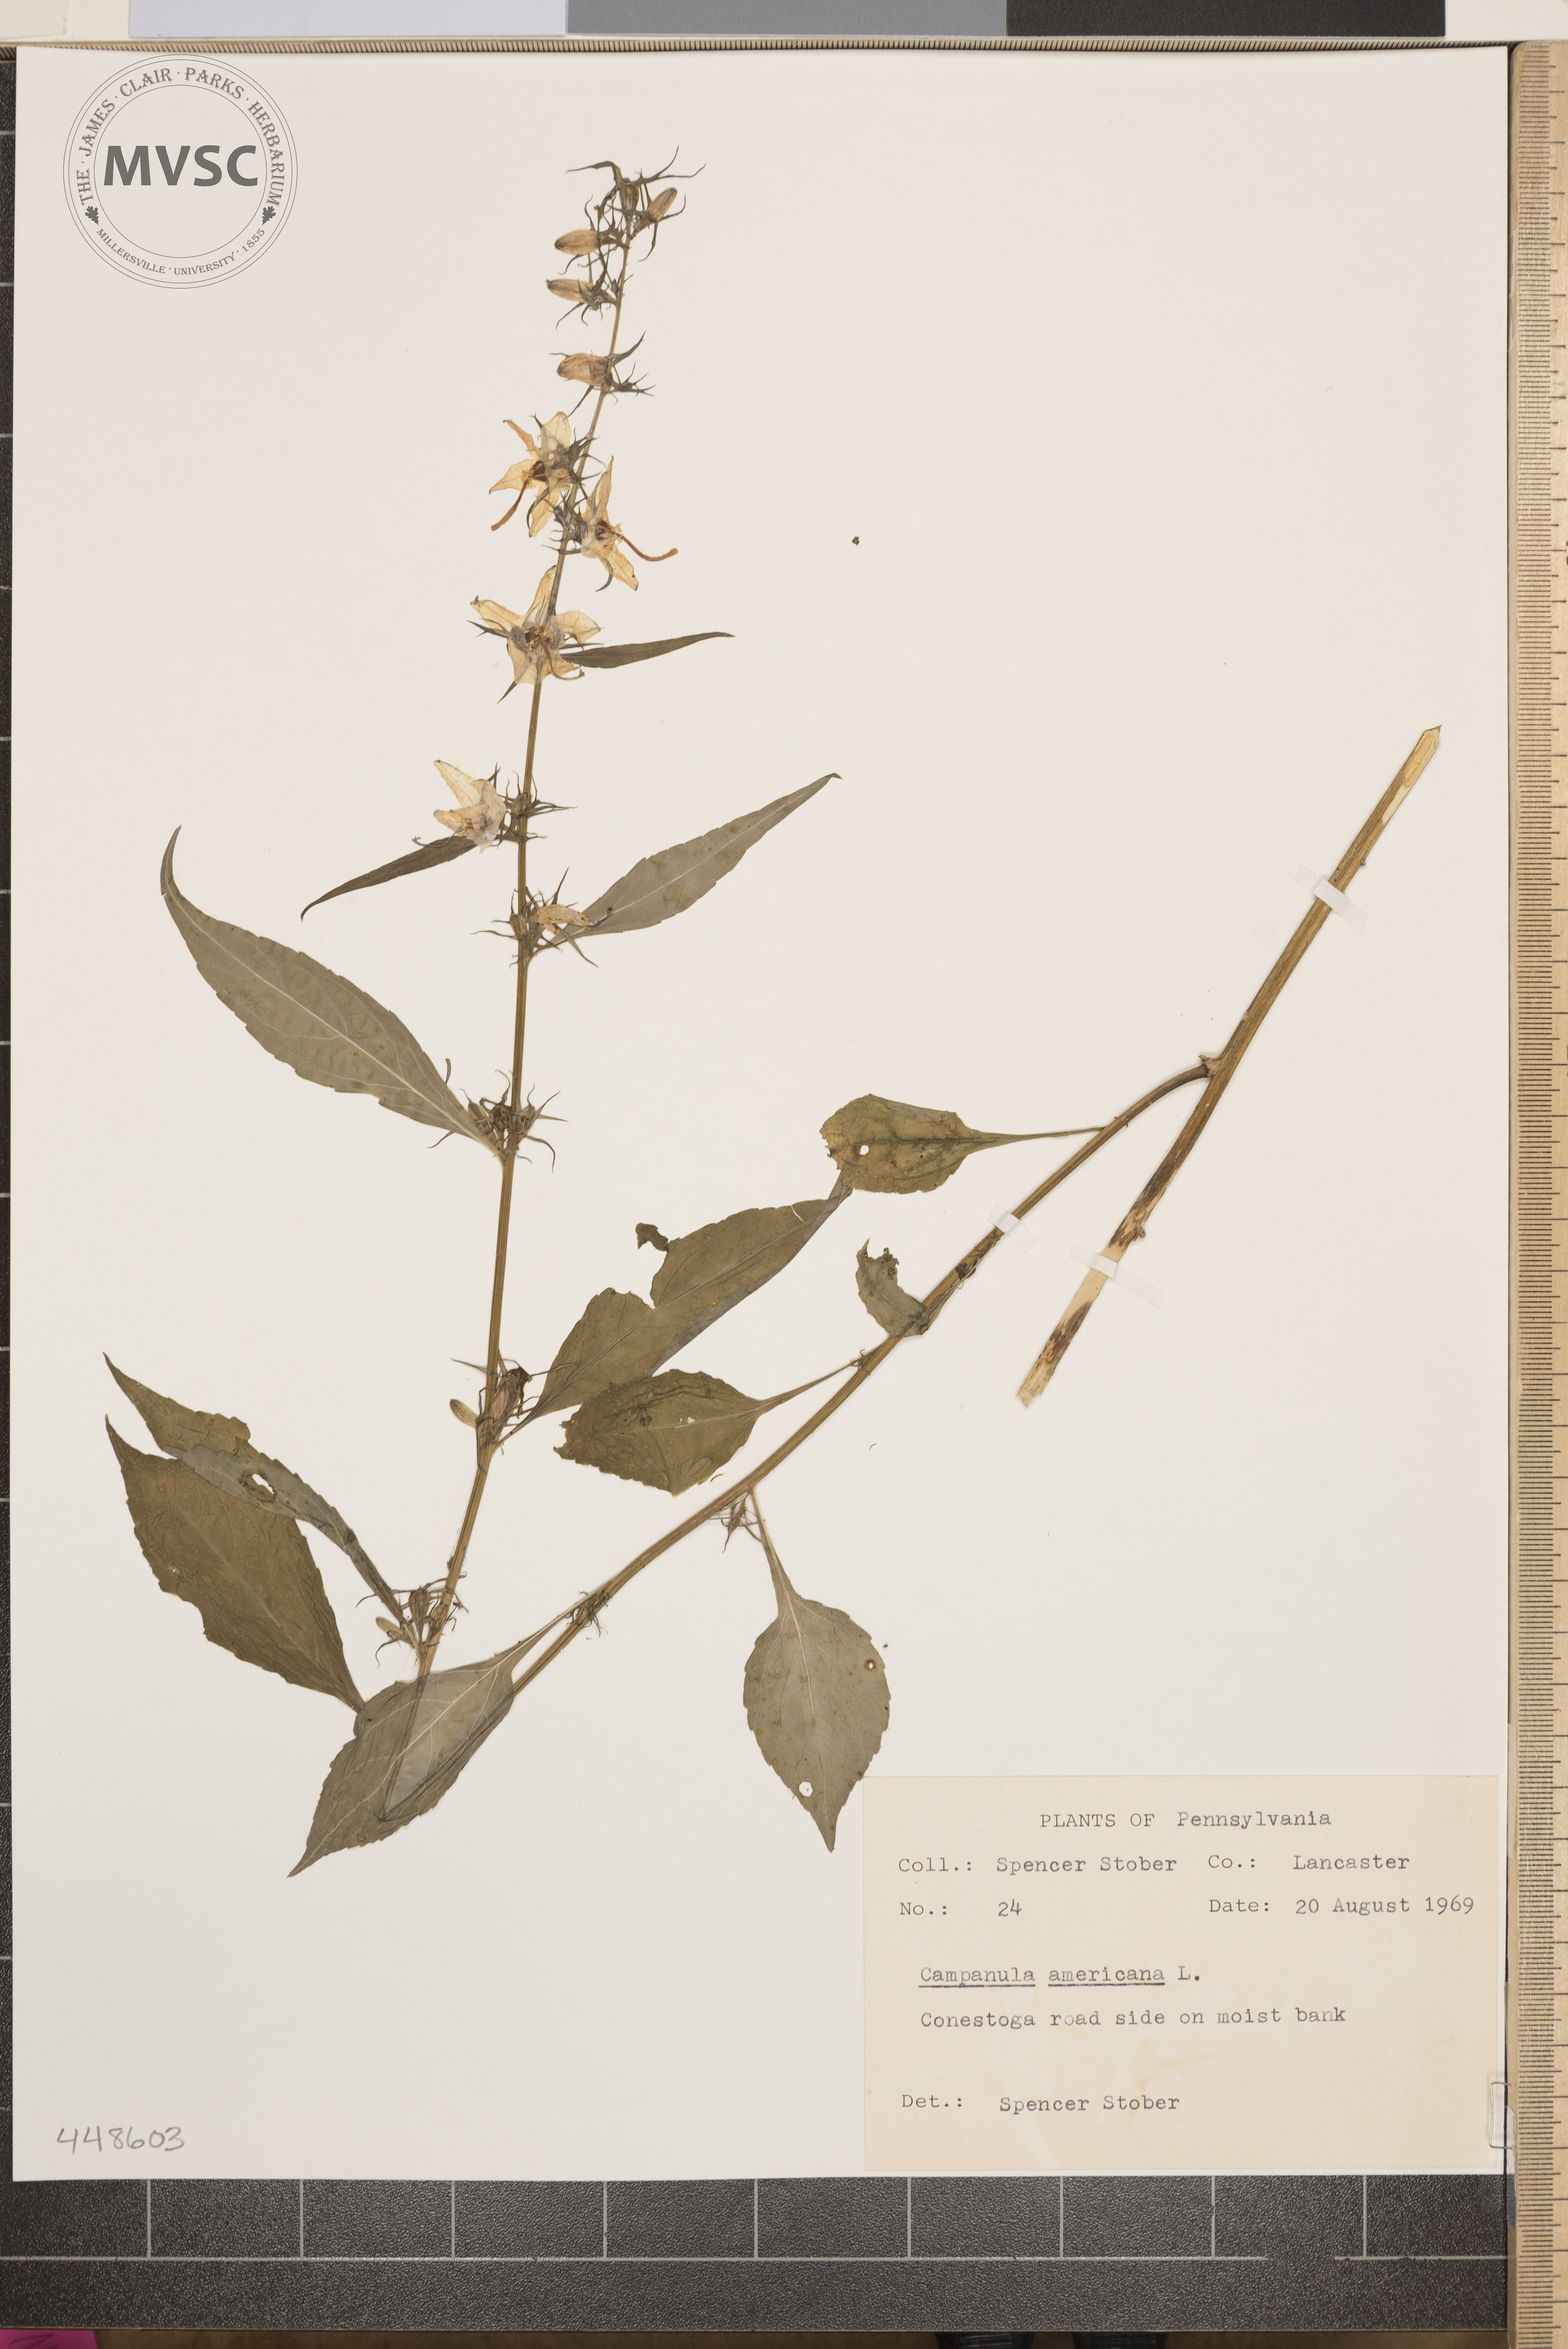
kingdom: Plantae
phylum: Tracheophyta
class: Magnoliopsida
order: Asterales
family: Campanulaceae
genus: Campanulastrum
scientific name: Campanulastrum americanum
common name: American bellflower
